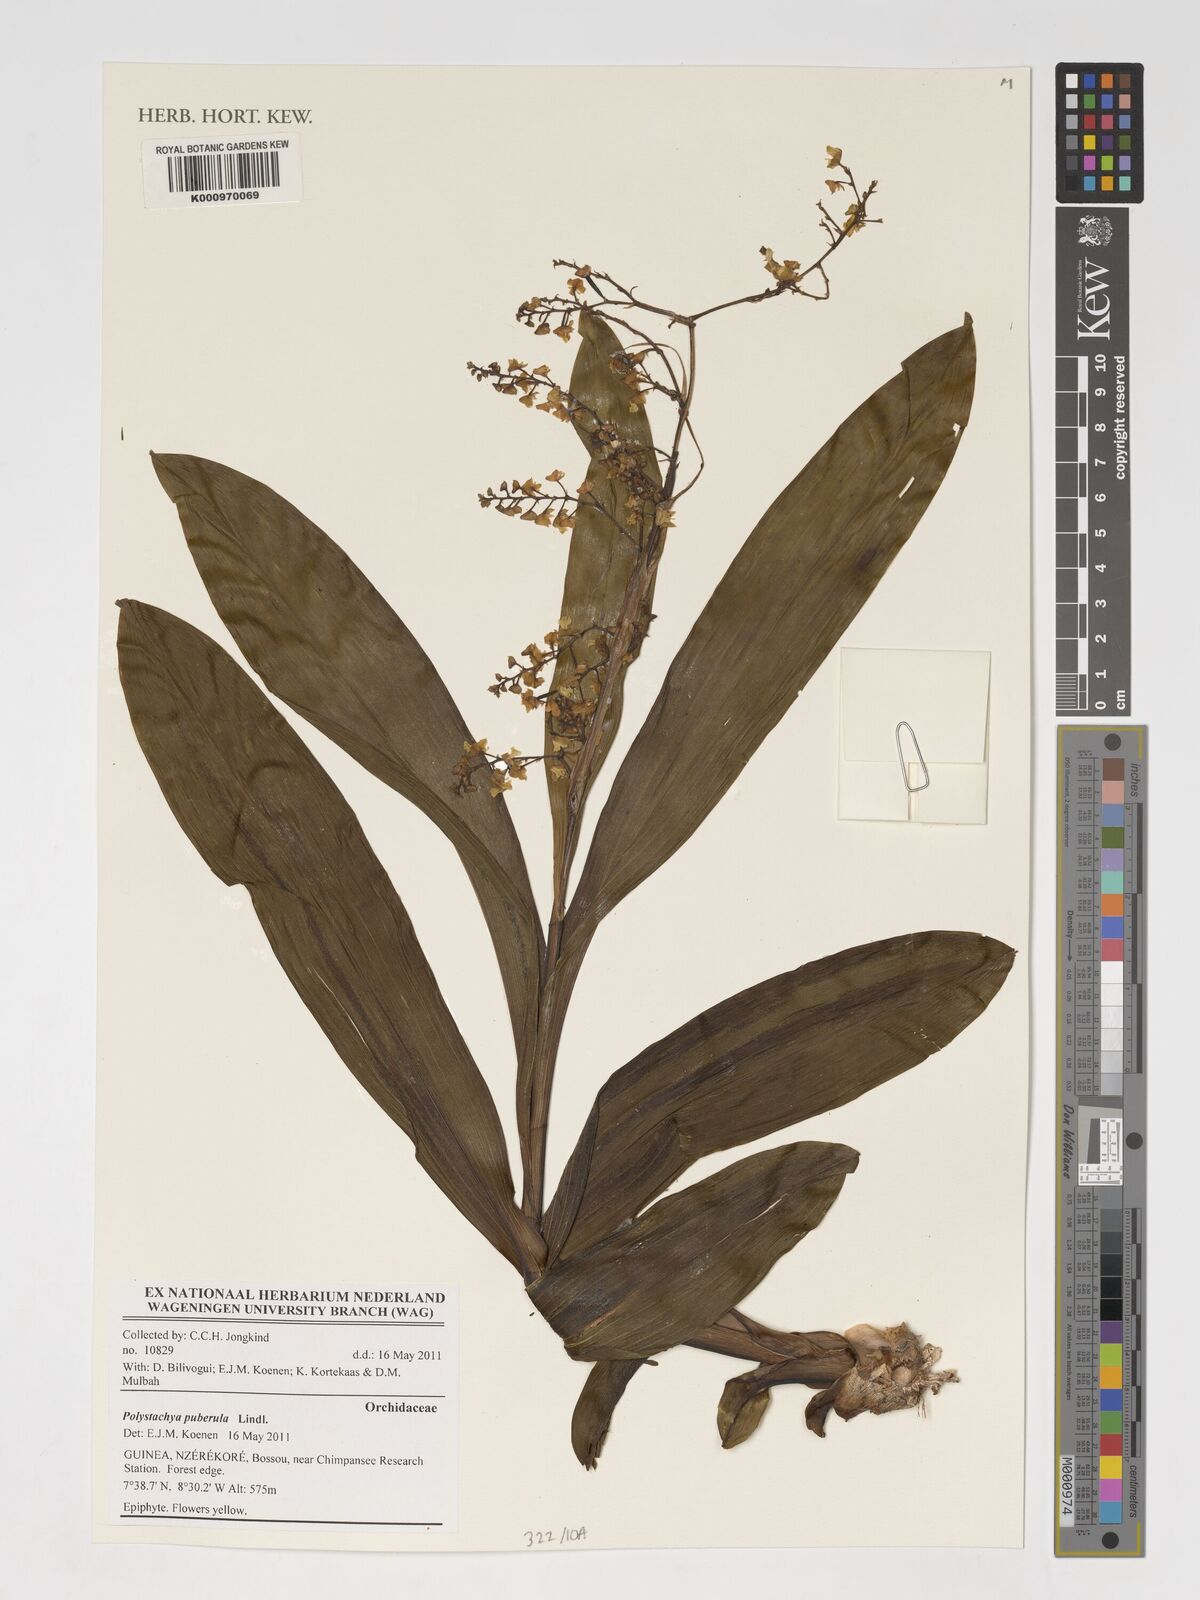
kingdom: Plantae
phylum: Tracheophyta
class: Liliopsida
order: Asparagales
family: Orchidaceae
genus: Polystachya
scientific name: Polystachya puberula
